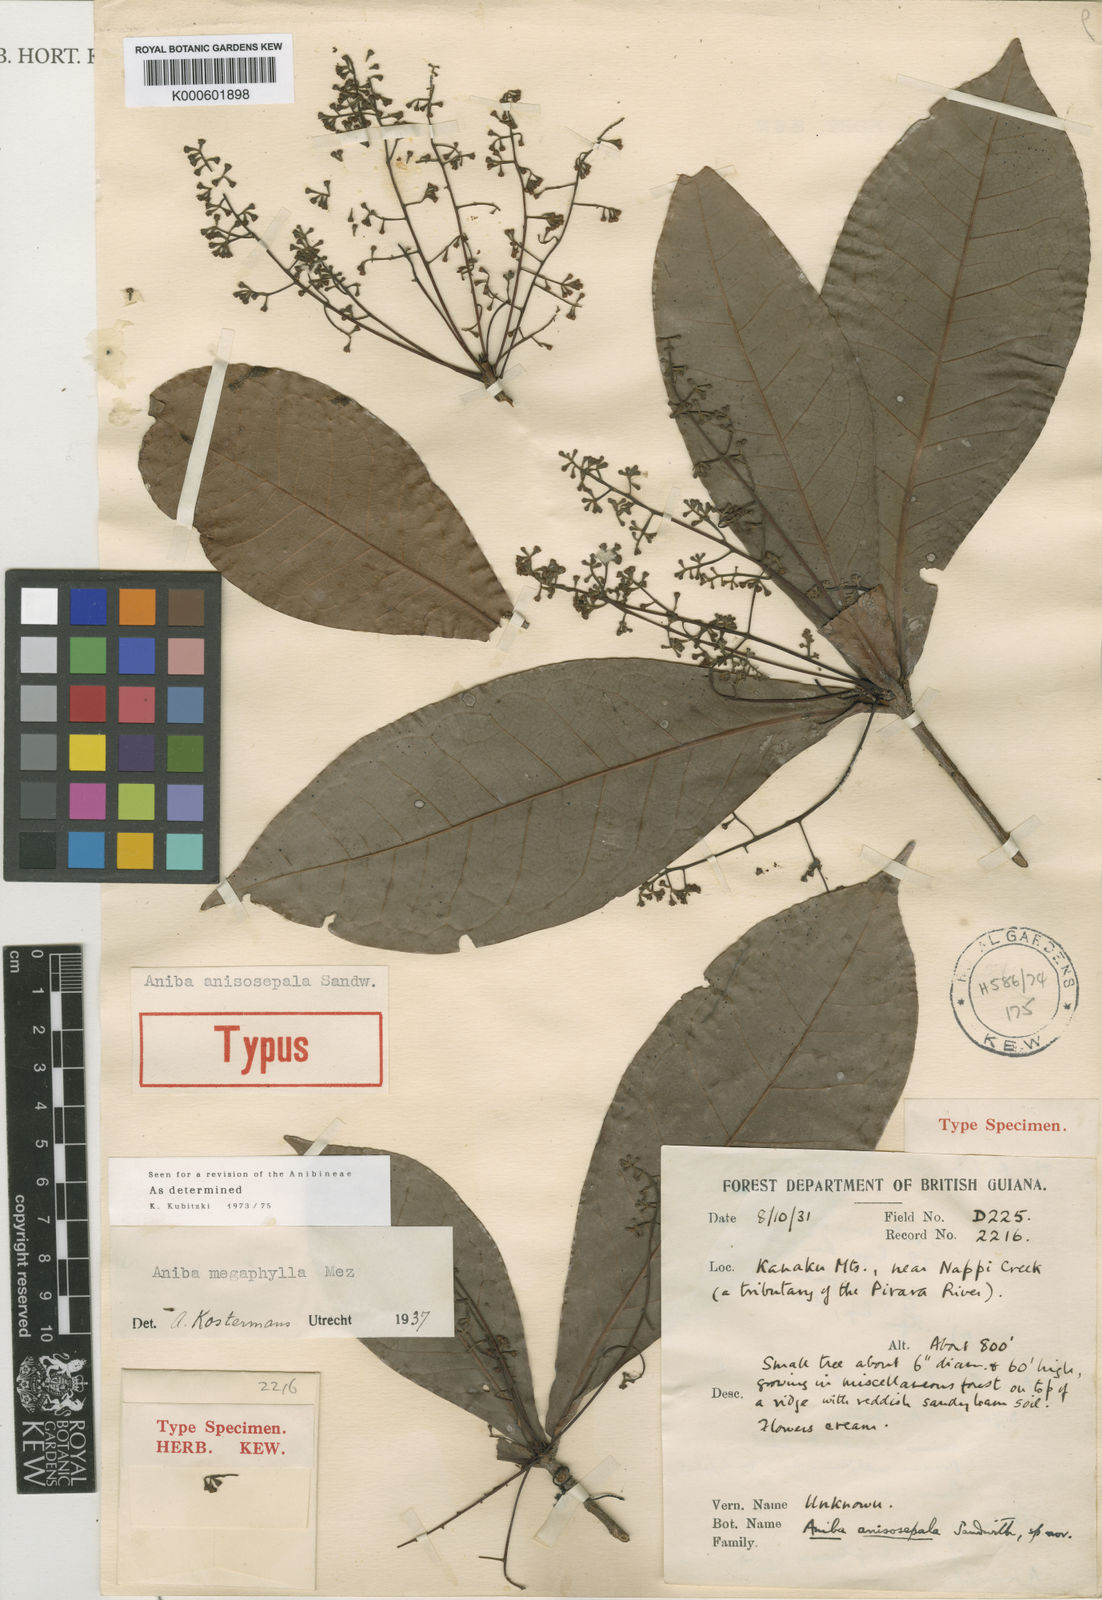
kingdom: Plantae
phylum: Tracheophyta
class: Magnoliopsida
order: Laurales
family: Lauraceae
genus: Aniba
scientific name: Aniba megaphylla
